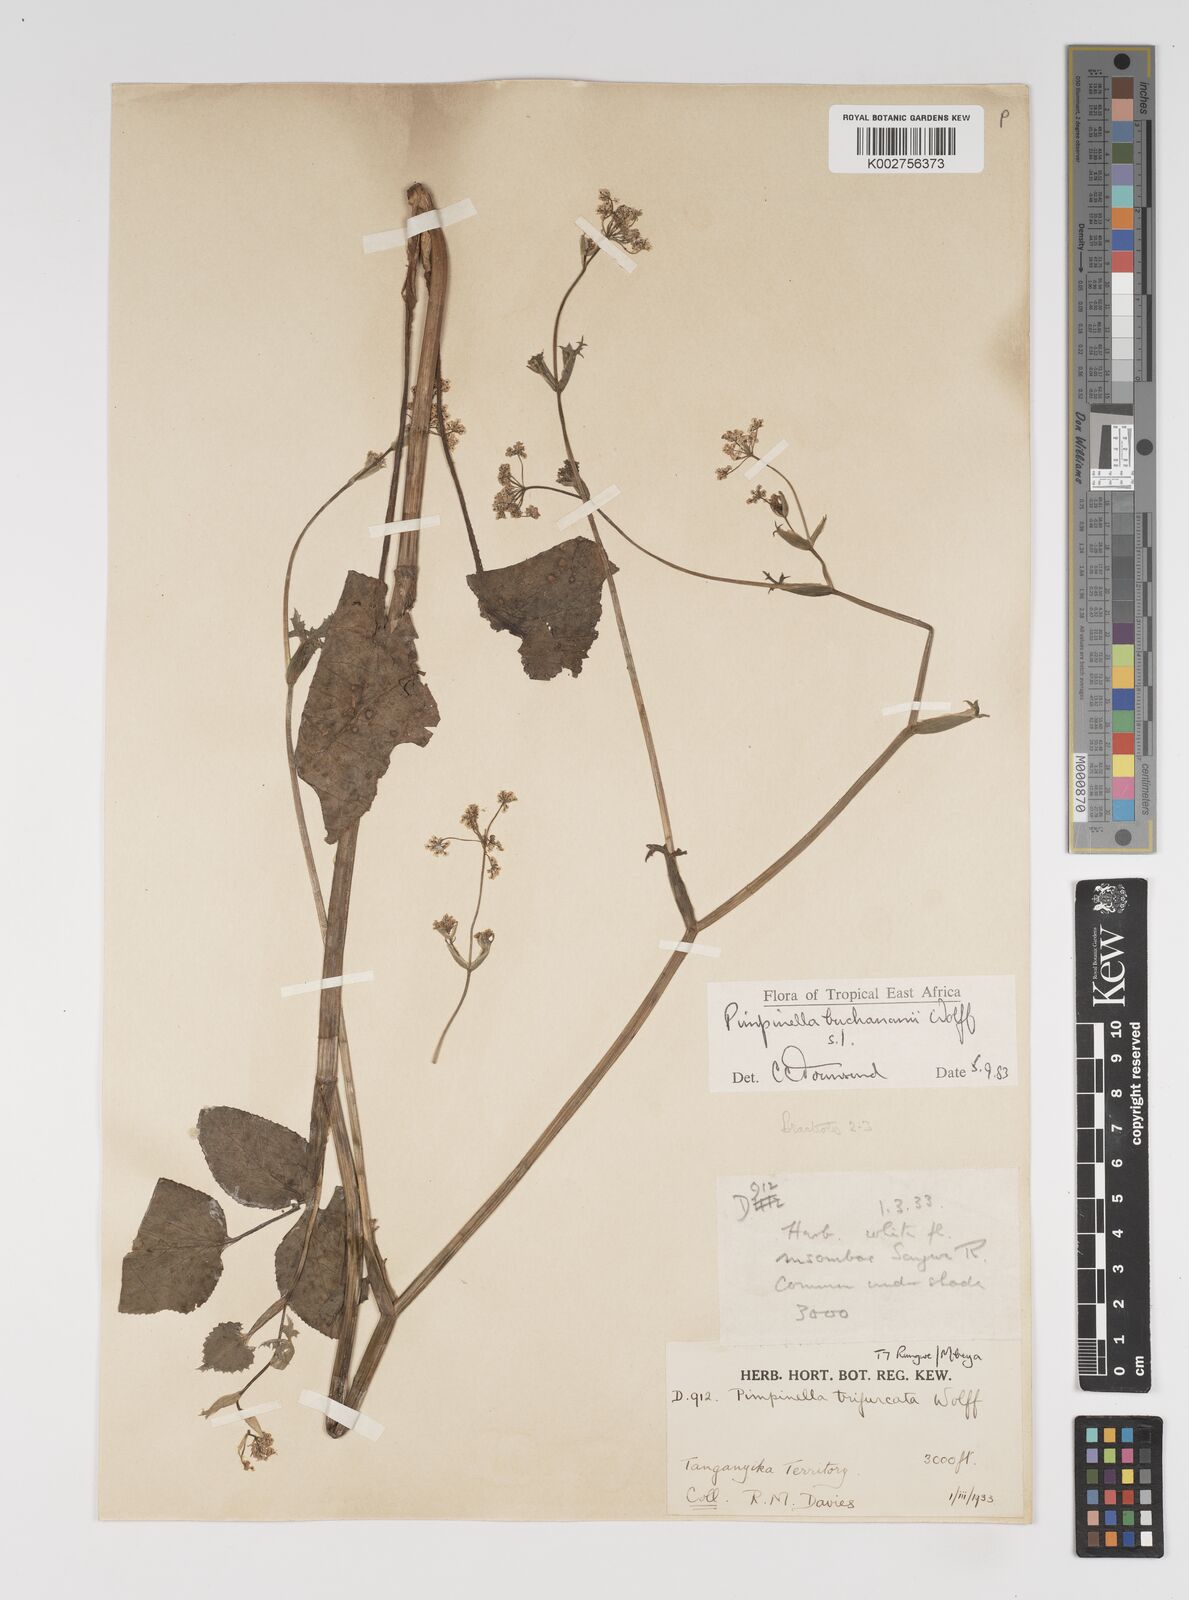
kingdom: Plantae
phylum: Tracheophyta
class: Magnoliopsida
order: Apiales
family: Apiaceae
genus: Pimpinella
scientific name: Pimpinella buchananii
